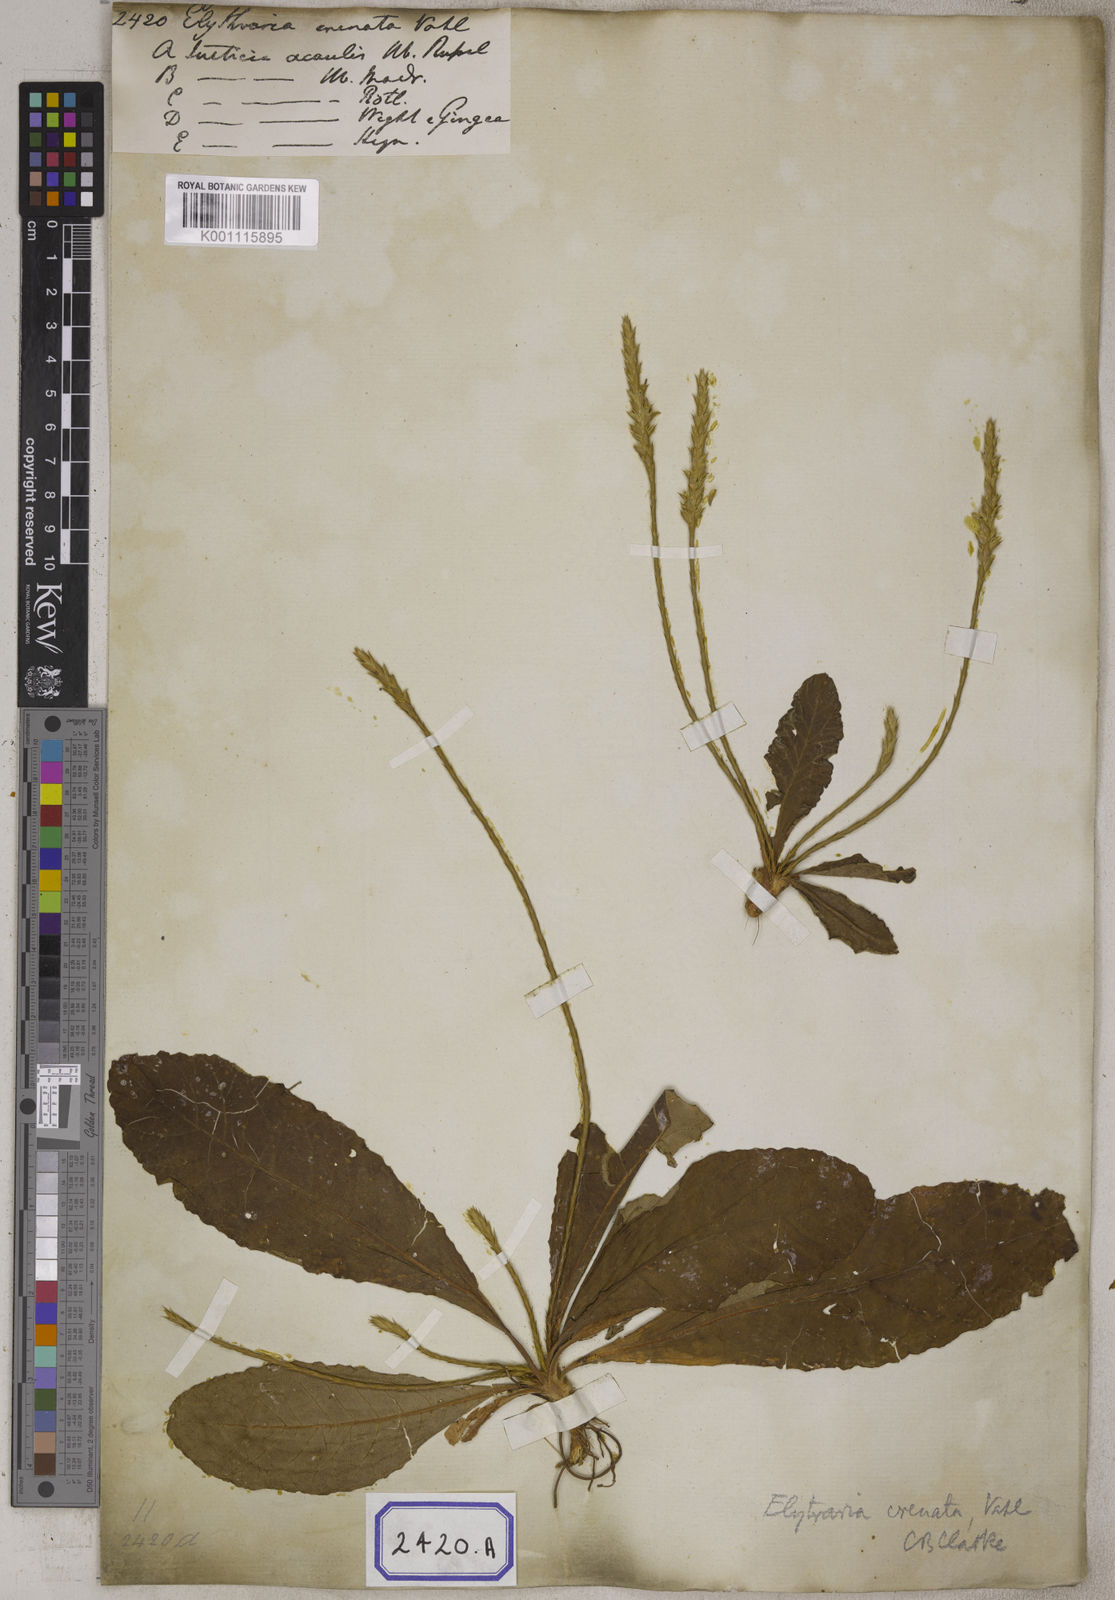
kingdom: Plantae
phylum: Tracheophyta
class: Magnoliopsida
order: Lamiales
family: Acanthaceae
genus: Elytraria
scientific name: Elytraria acaulis
